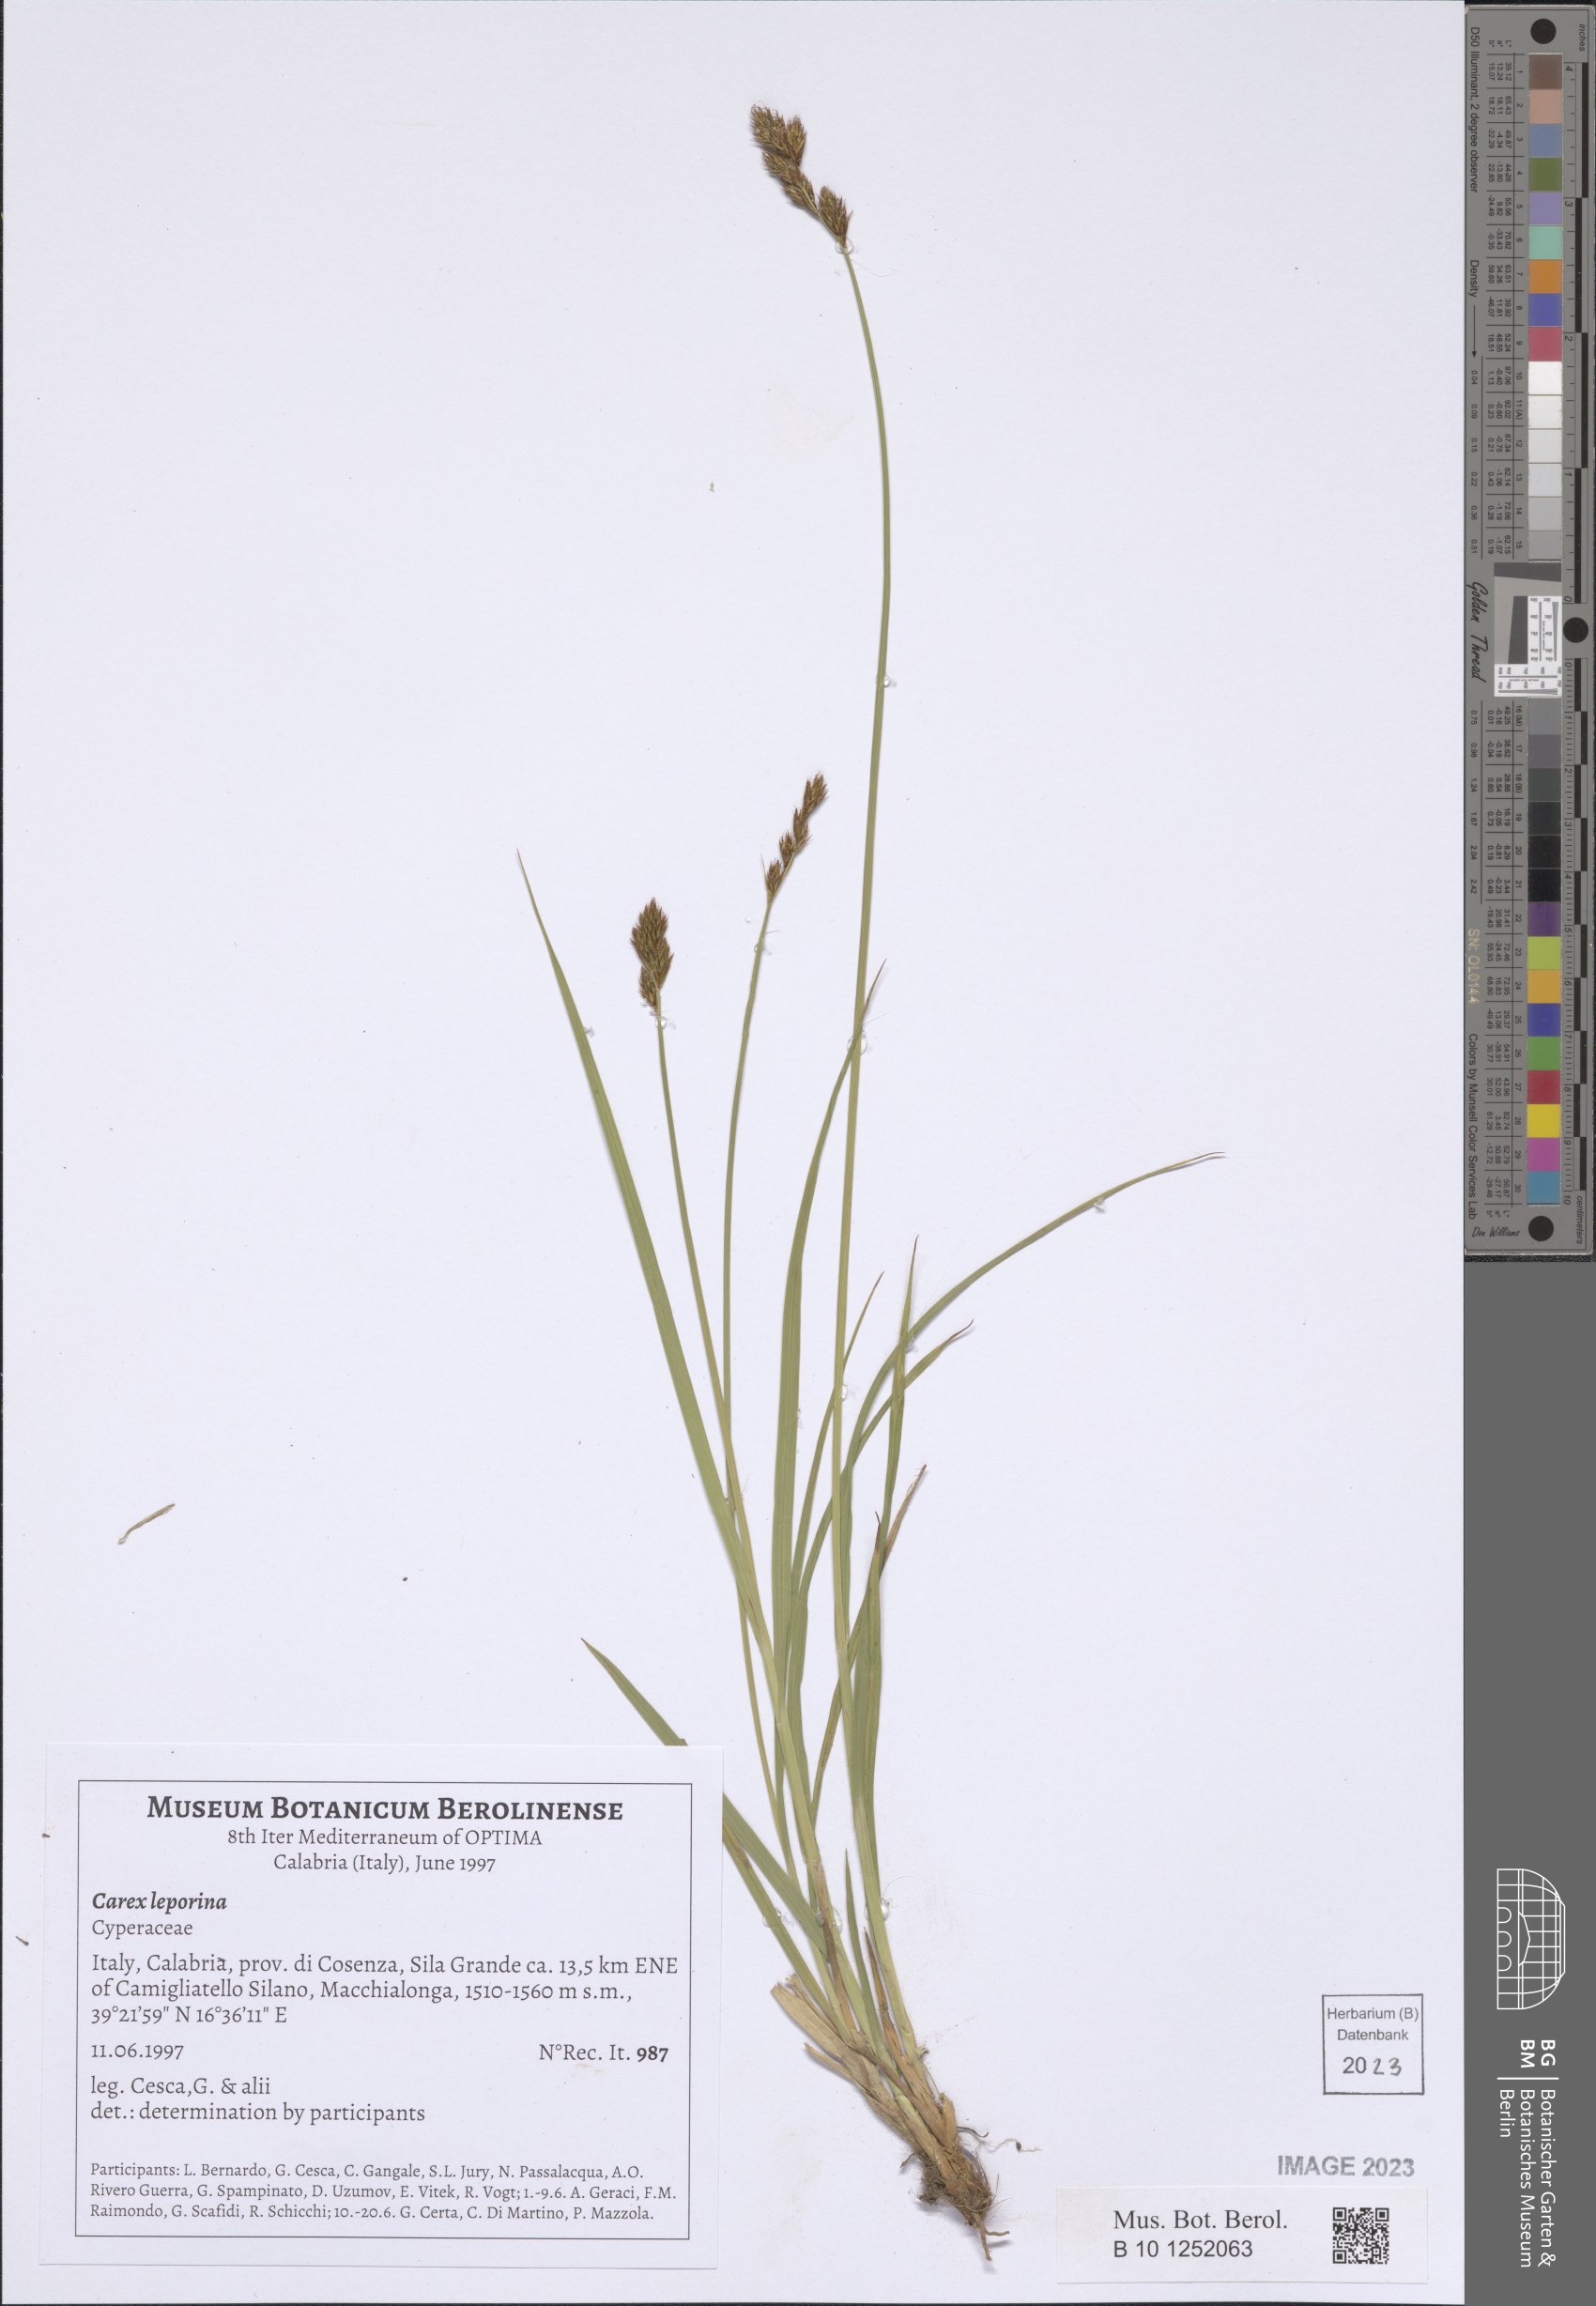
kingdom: Plantae
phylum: Tracheophyta
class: Liliopsida
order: Poales
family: Cyperaceae
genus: Carex
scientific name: Carex leporina
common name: Oval sedge
